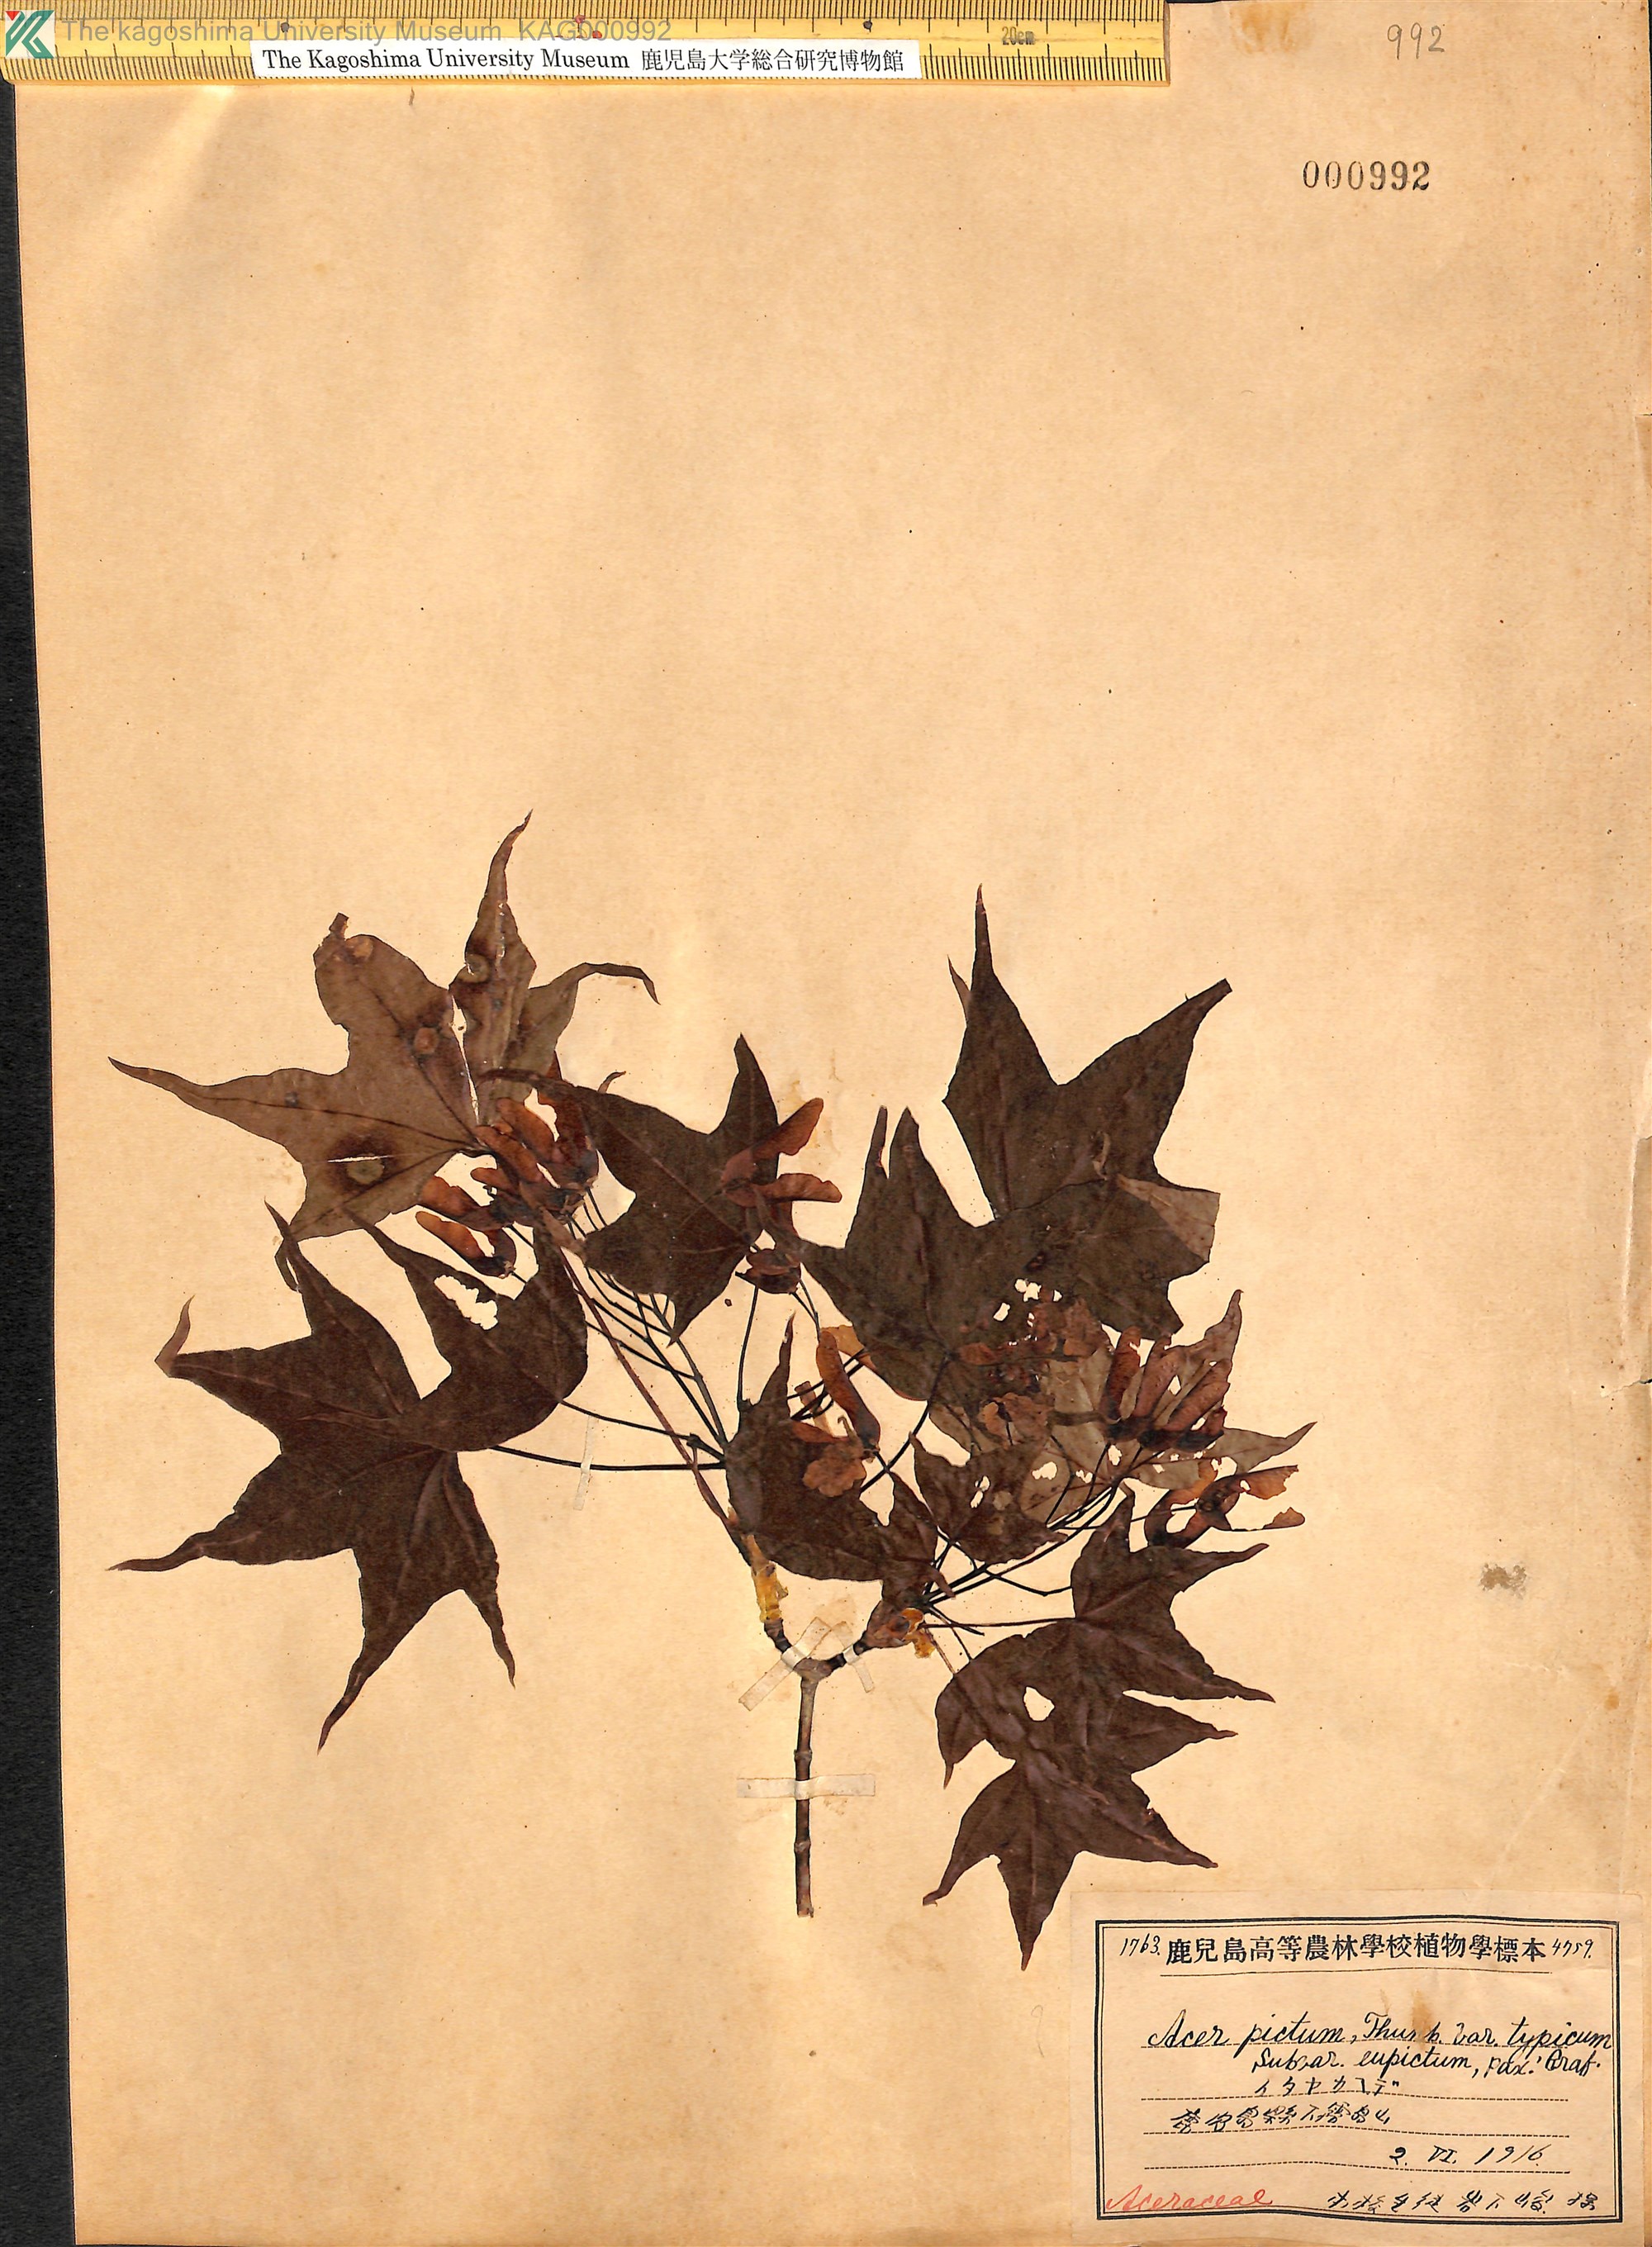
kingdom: Plantae
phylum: Tracheophyta
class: Magnoliopsida
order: Sapindales
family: Sapindaceae
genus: Acer
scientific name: Acer pictum
